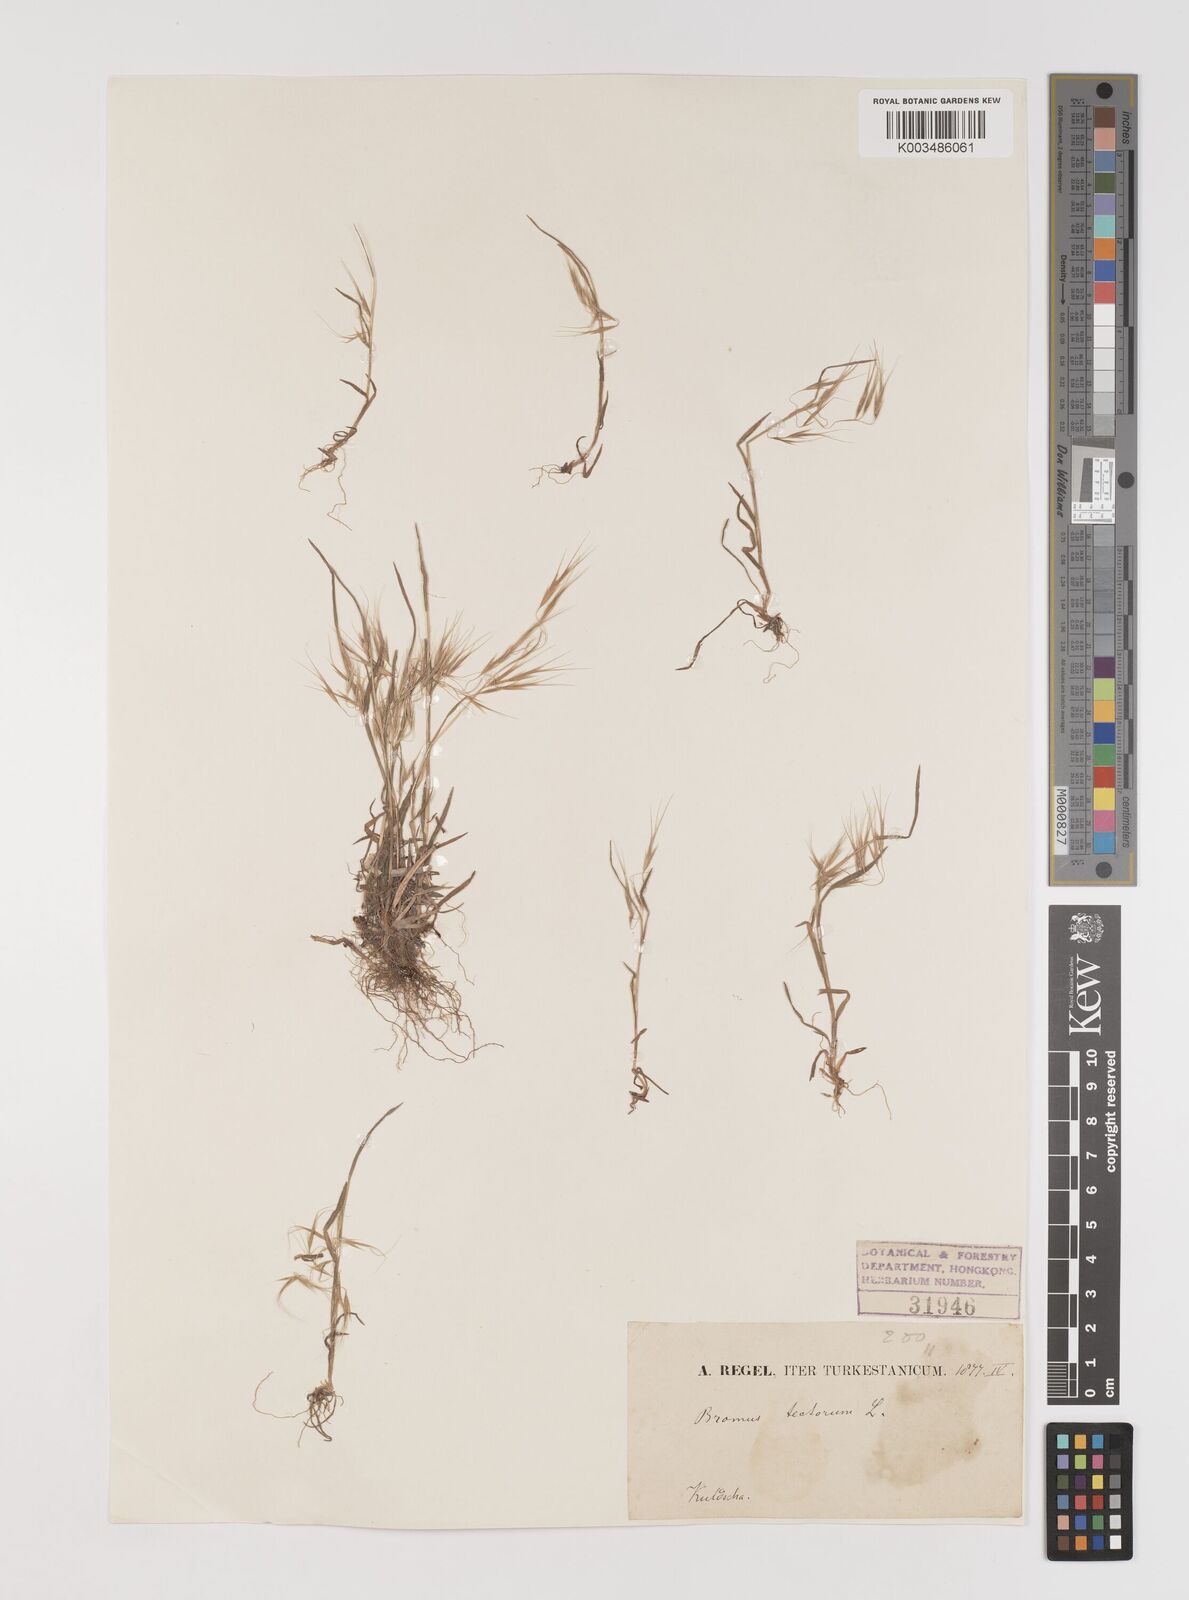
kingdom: Plantae
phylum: Tracheophyta
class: Liliopsida
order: Poales
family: Poaceae
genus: Bromus
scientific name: Bromus tectorum
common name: Cheatgrass
